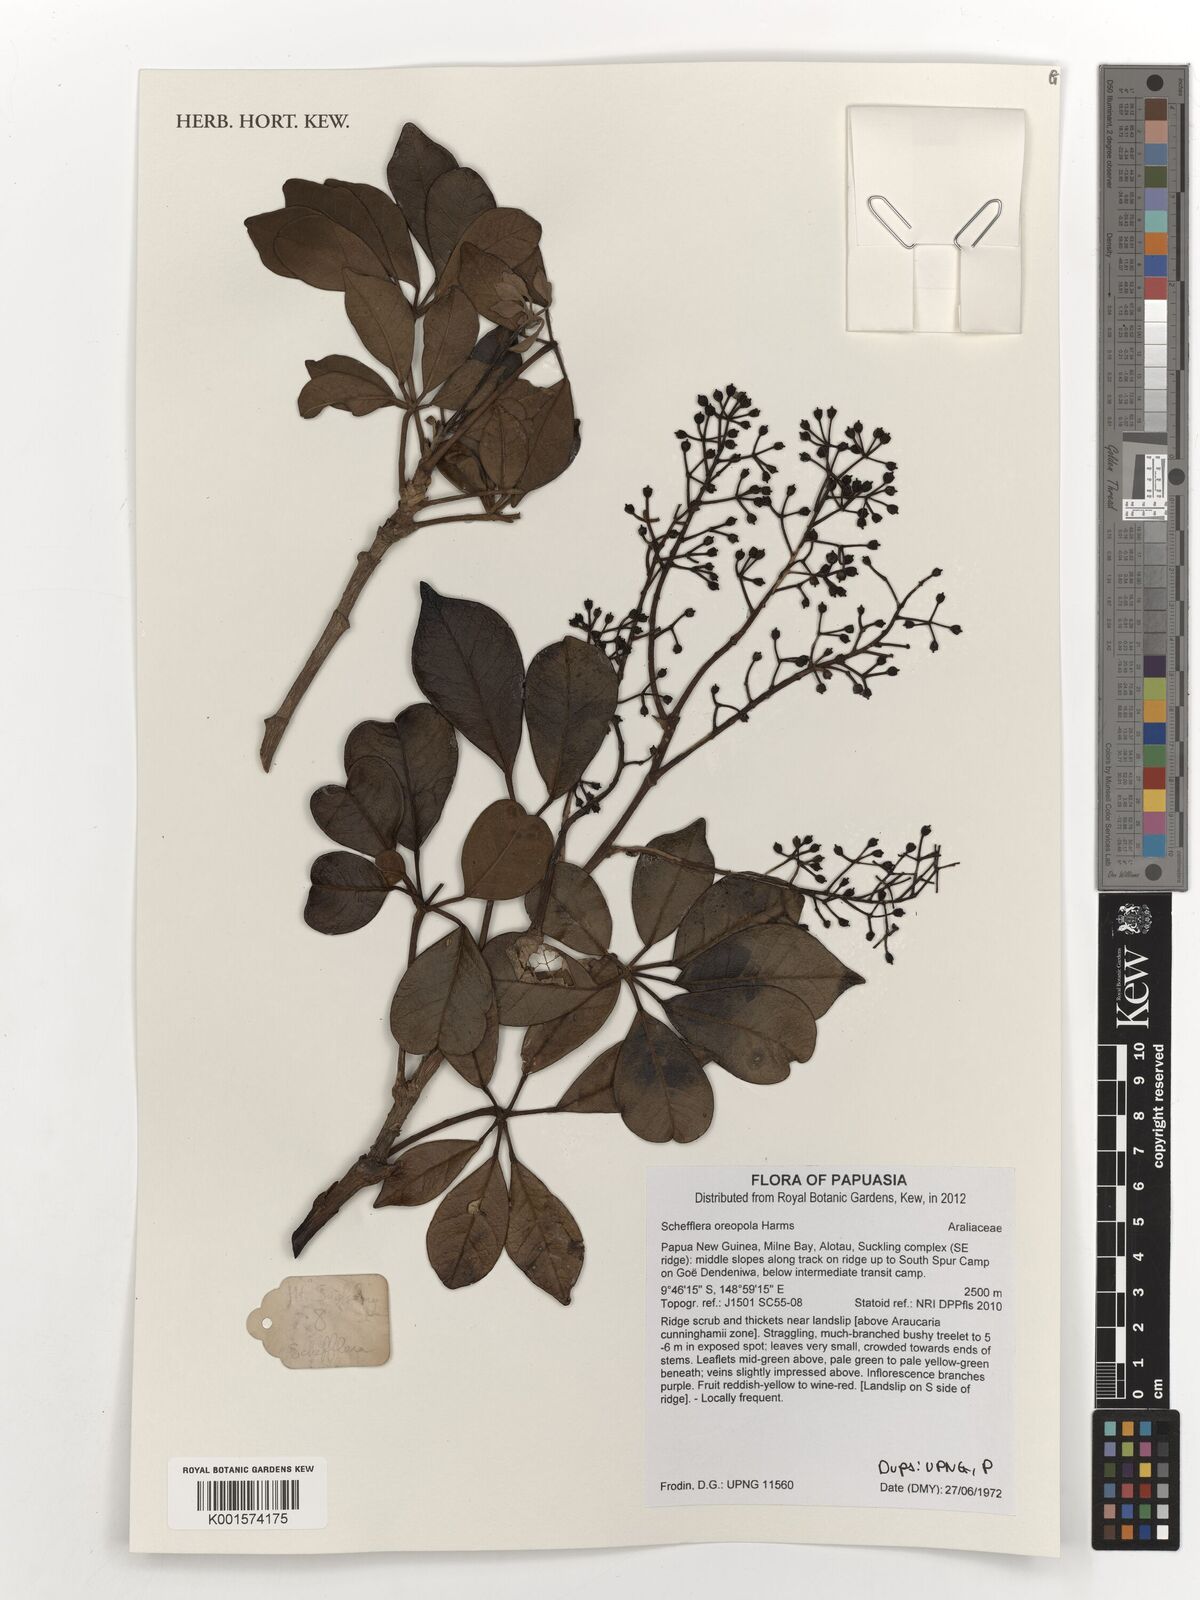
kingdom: Plantae
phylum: Tracheophyta
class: Magnoliopsida
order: Apiales
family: Araliaceae
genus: Heptapleurum
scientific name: Heptapleurum oreopolum
